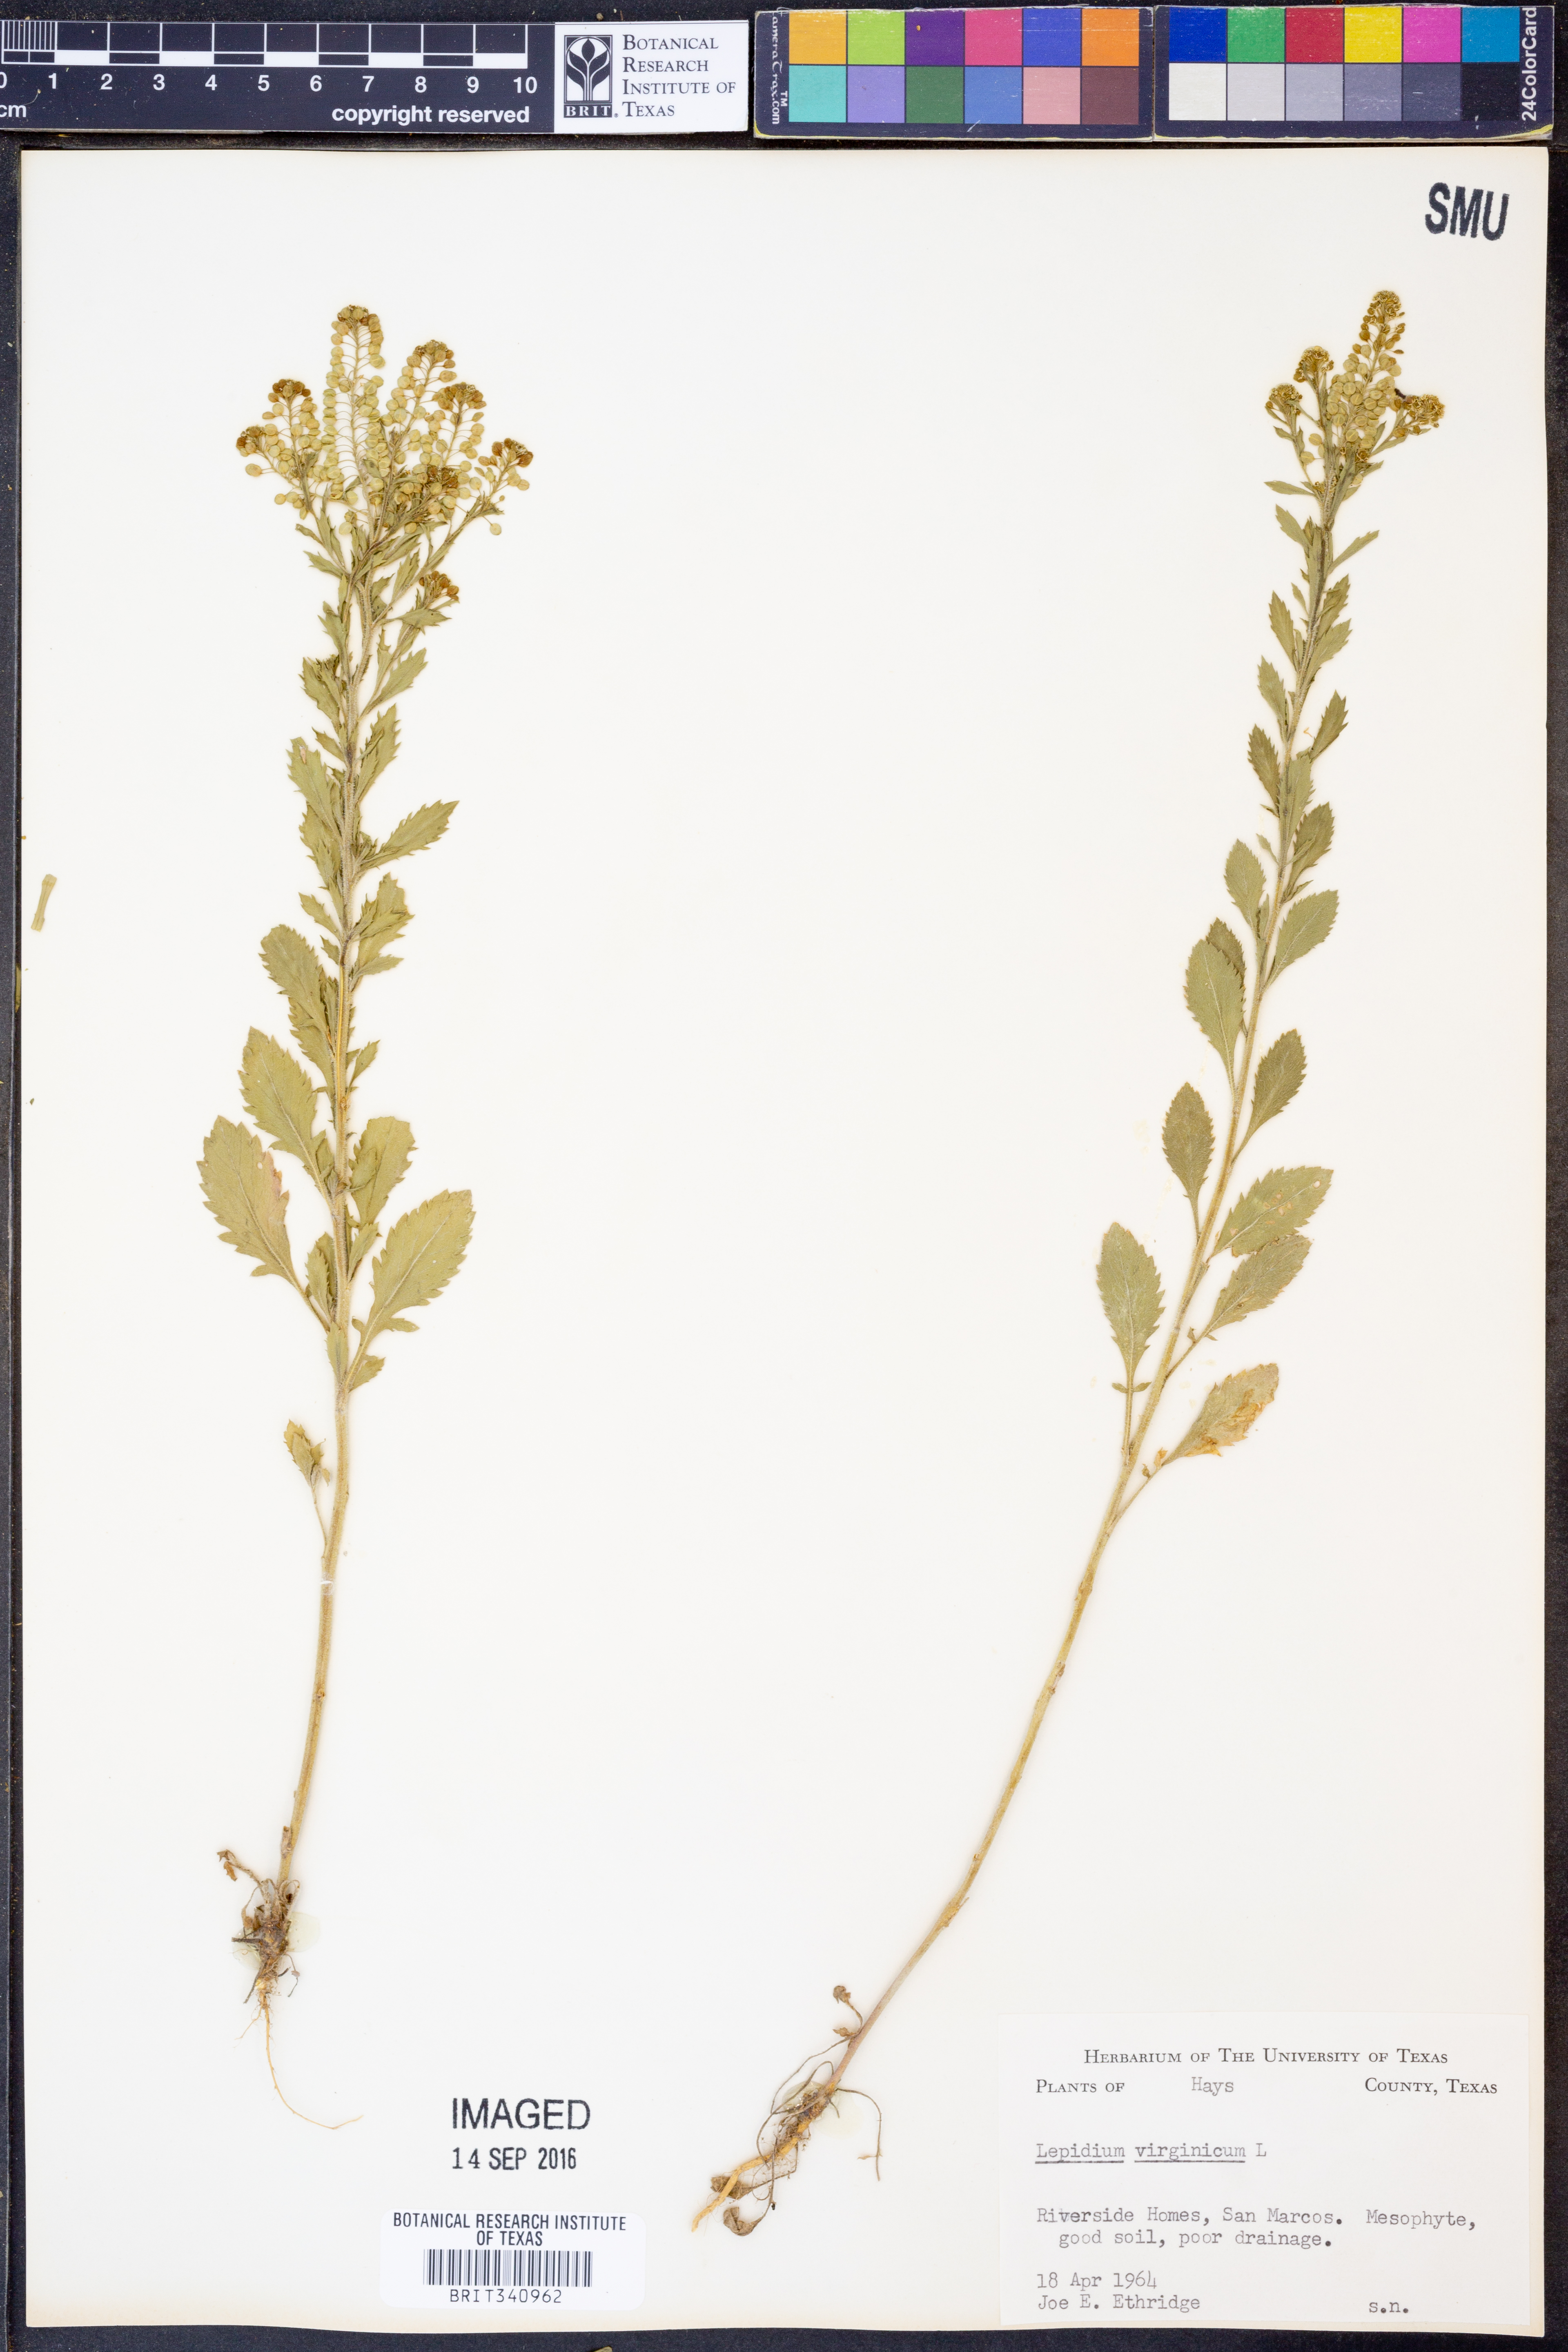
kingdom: Plantae
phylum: Tracheophyta
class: Magnoliopsida
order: Brassicales
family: Brassicaceae
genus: Lepidium
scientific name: Lepidium virginicum
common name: Least pepperwort
